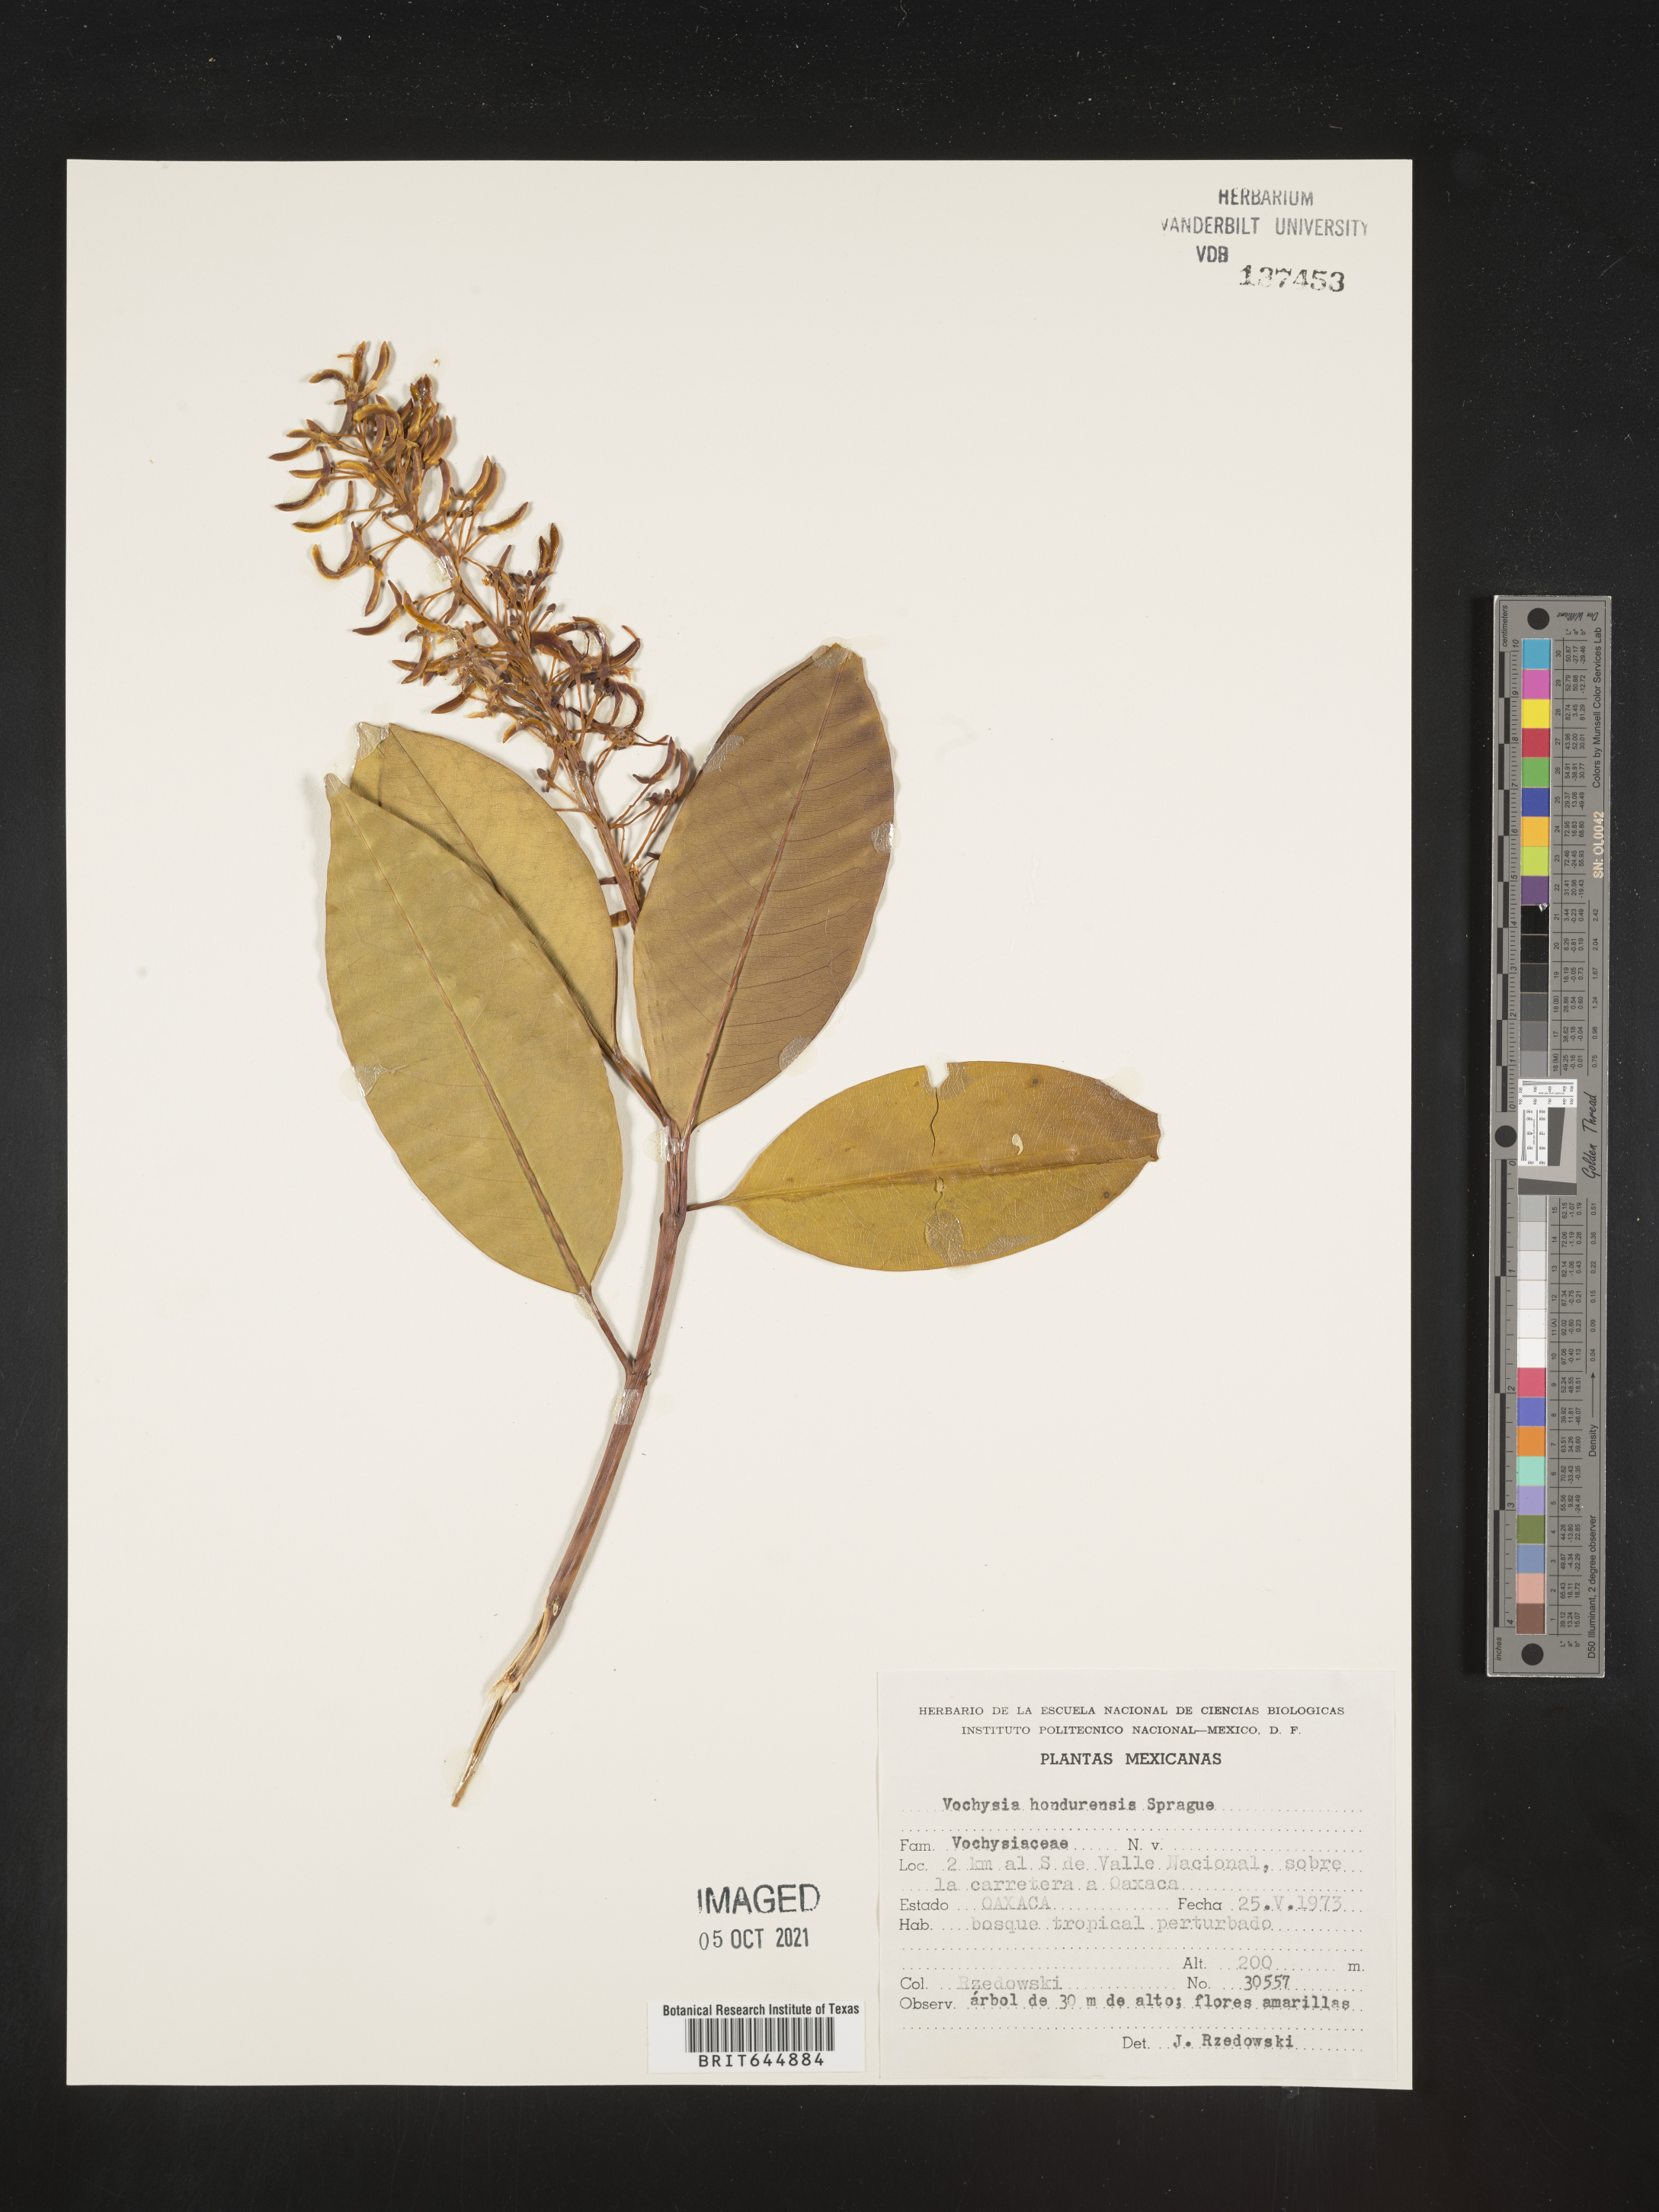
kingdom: Plantae
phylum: Tracheophyta
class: Magnoliopsida
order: Myrtales
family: Vochysiaceae
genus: Vochysia
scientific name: Vochysia
